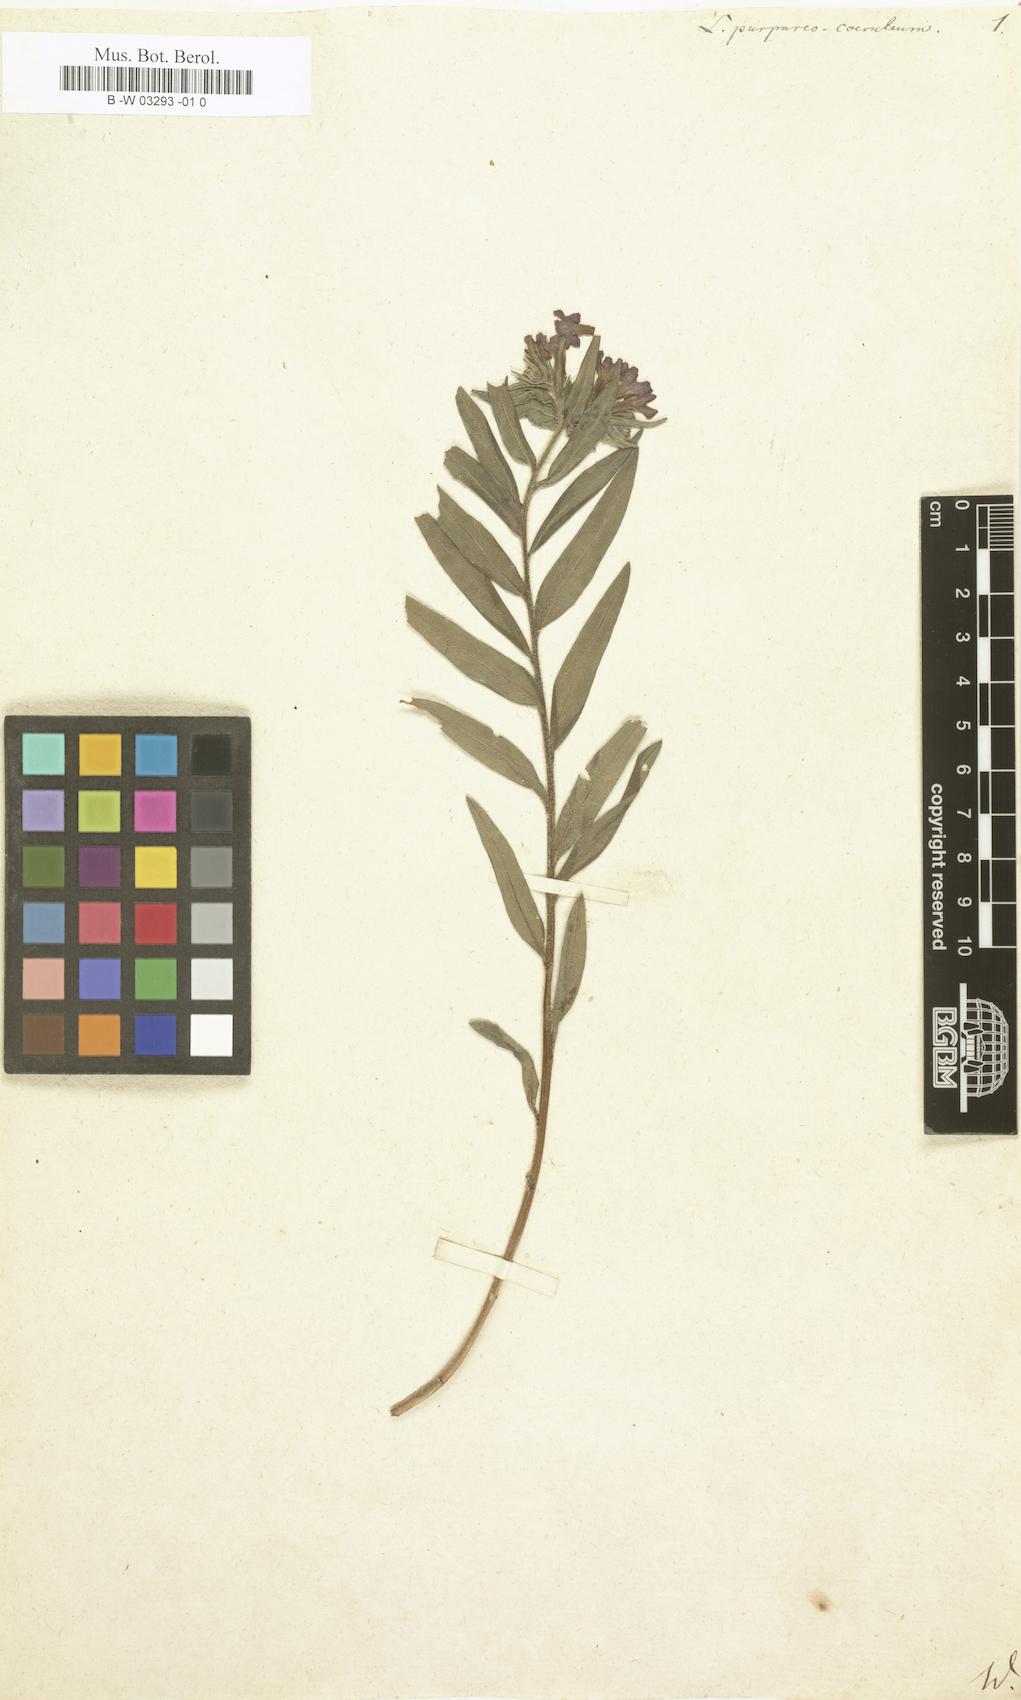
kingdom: Plantae
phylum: Tracheophyta
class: Magnoliopsida
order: Boraginales
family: Boraginaceae
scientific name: Boraginaceae
